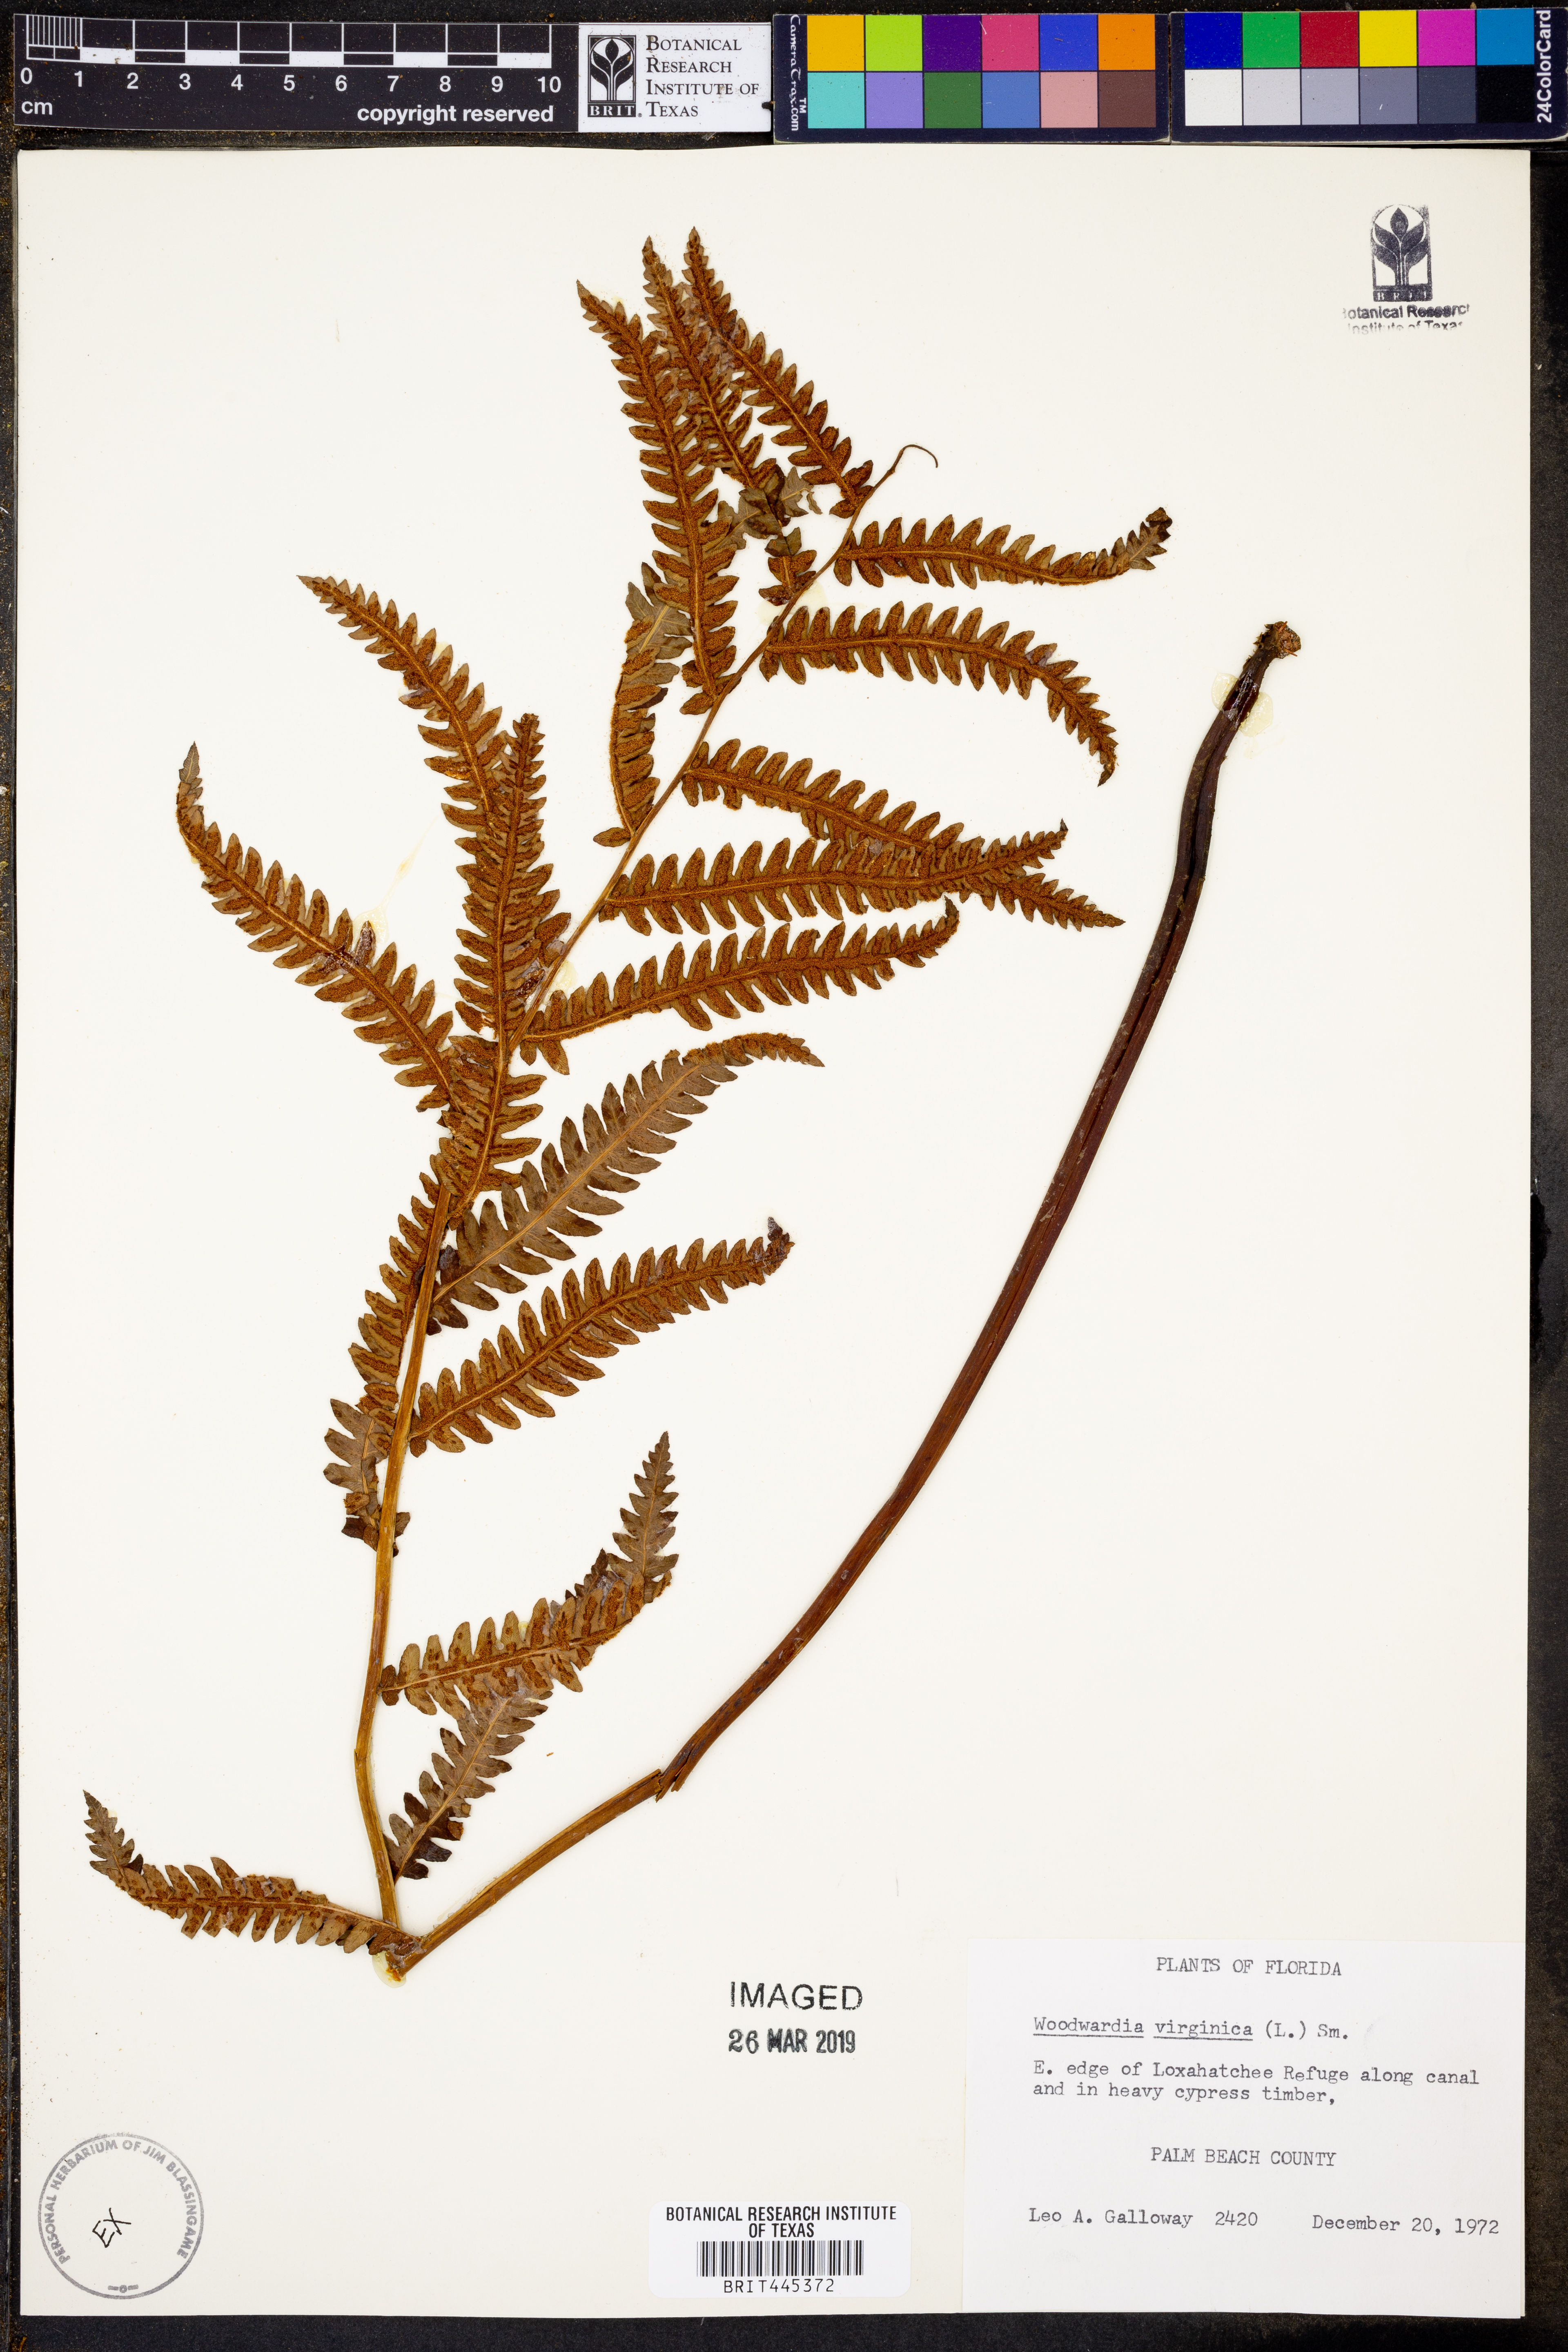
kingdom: Plantae
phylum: Tracheophyta
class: Polypodiopsida
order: Polypodiales
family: Blechnaceae
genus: Anchistea
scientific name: Anchistea virginica
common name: Virginia chain fern
